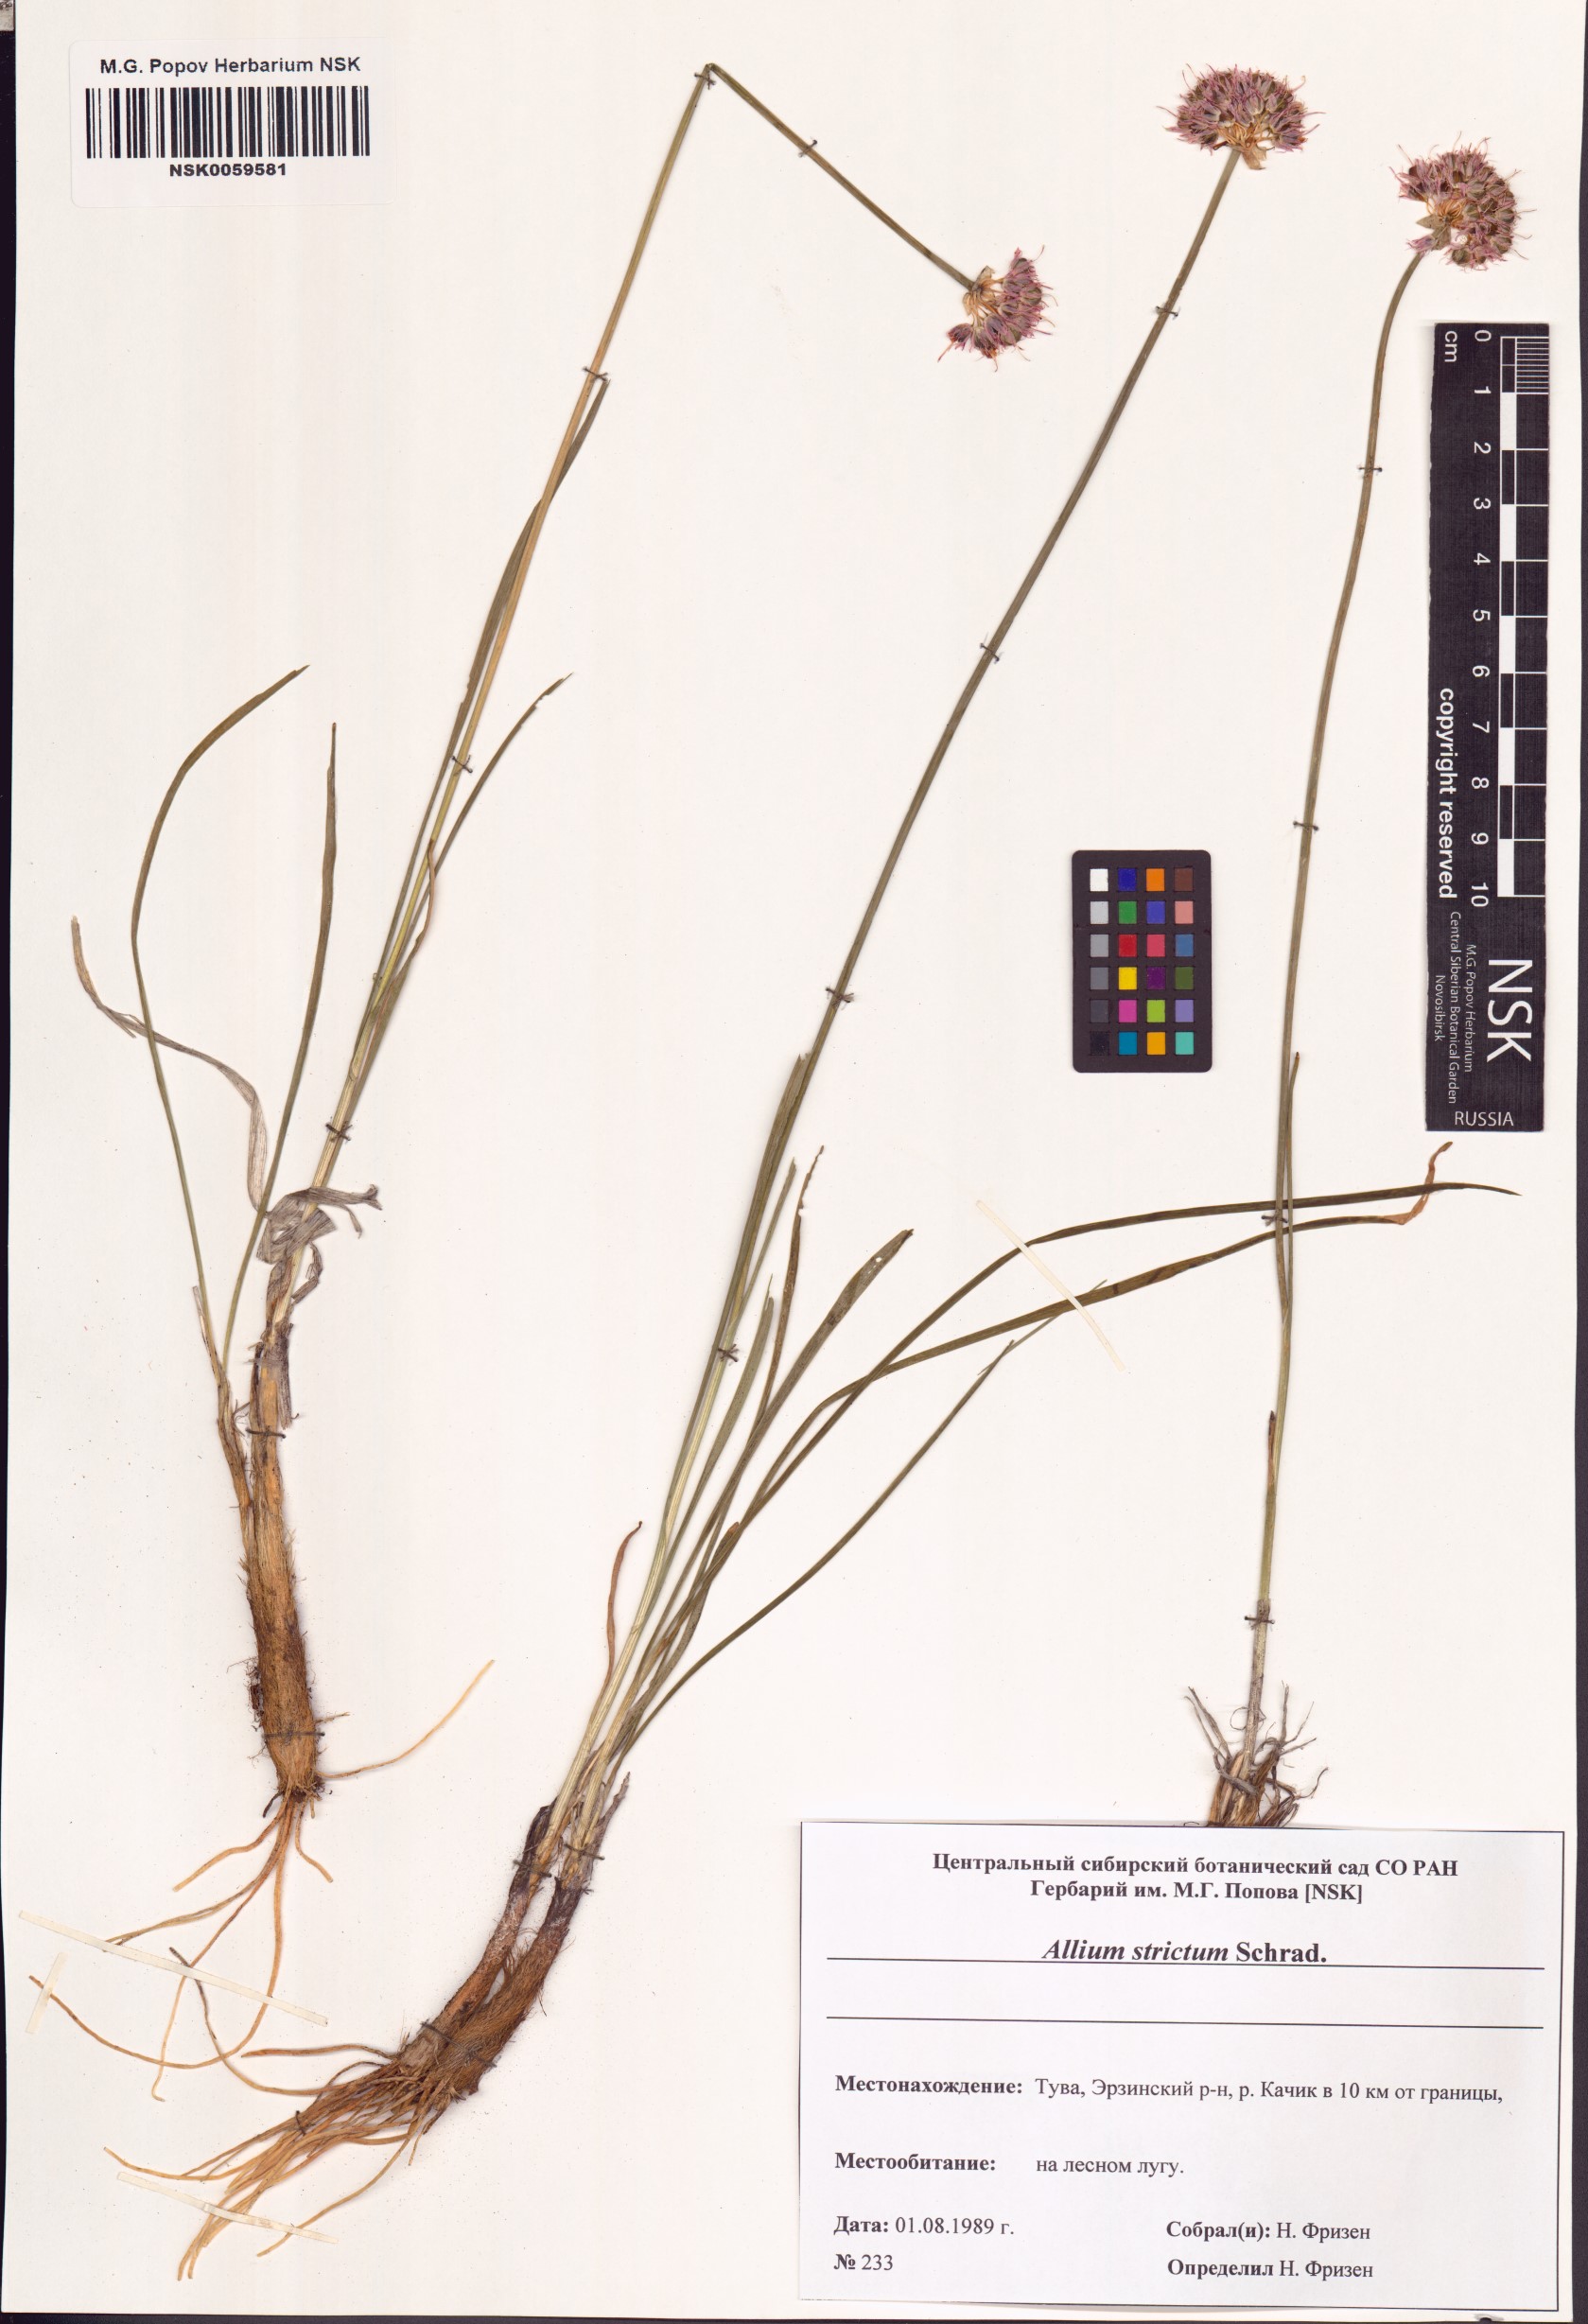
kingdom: Plantae
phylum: Tracheophyta
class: Liliopsida
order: Asparagales
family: Amaryllidaceae
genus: Allium
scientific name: Allium strictum
